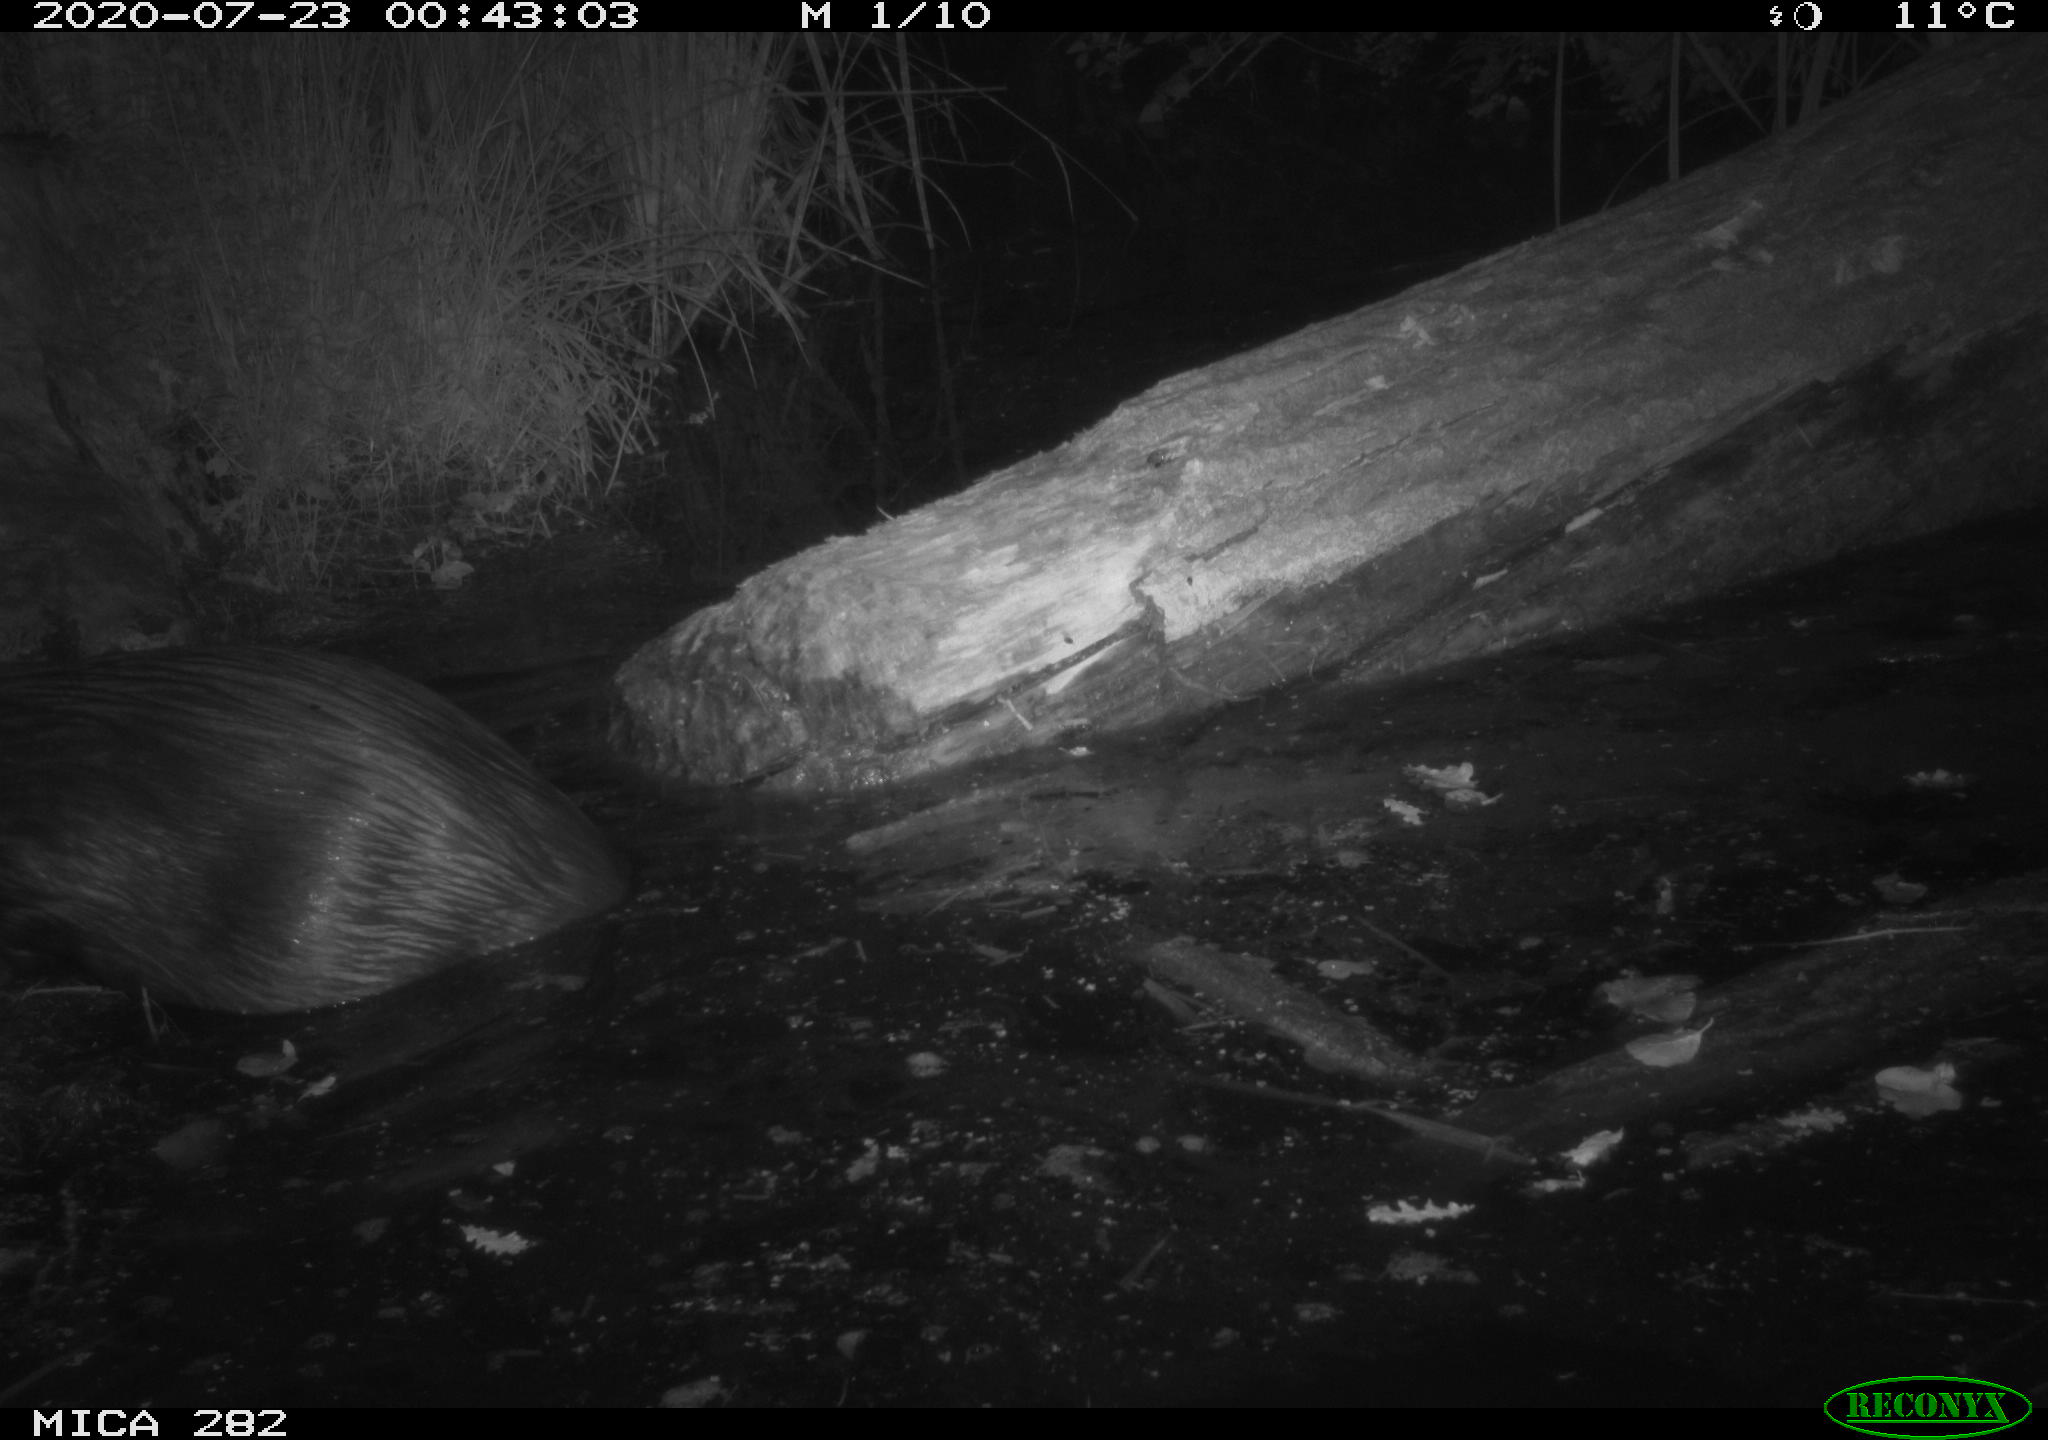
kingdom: Animalia
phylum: Chordata
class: Mammalia
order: Rodentia
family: Castoridae
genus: Castor
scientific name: Castor fiber
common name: Eurasian beaver
